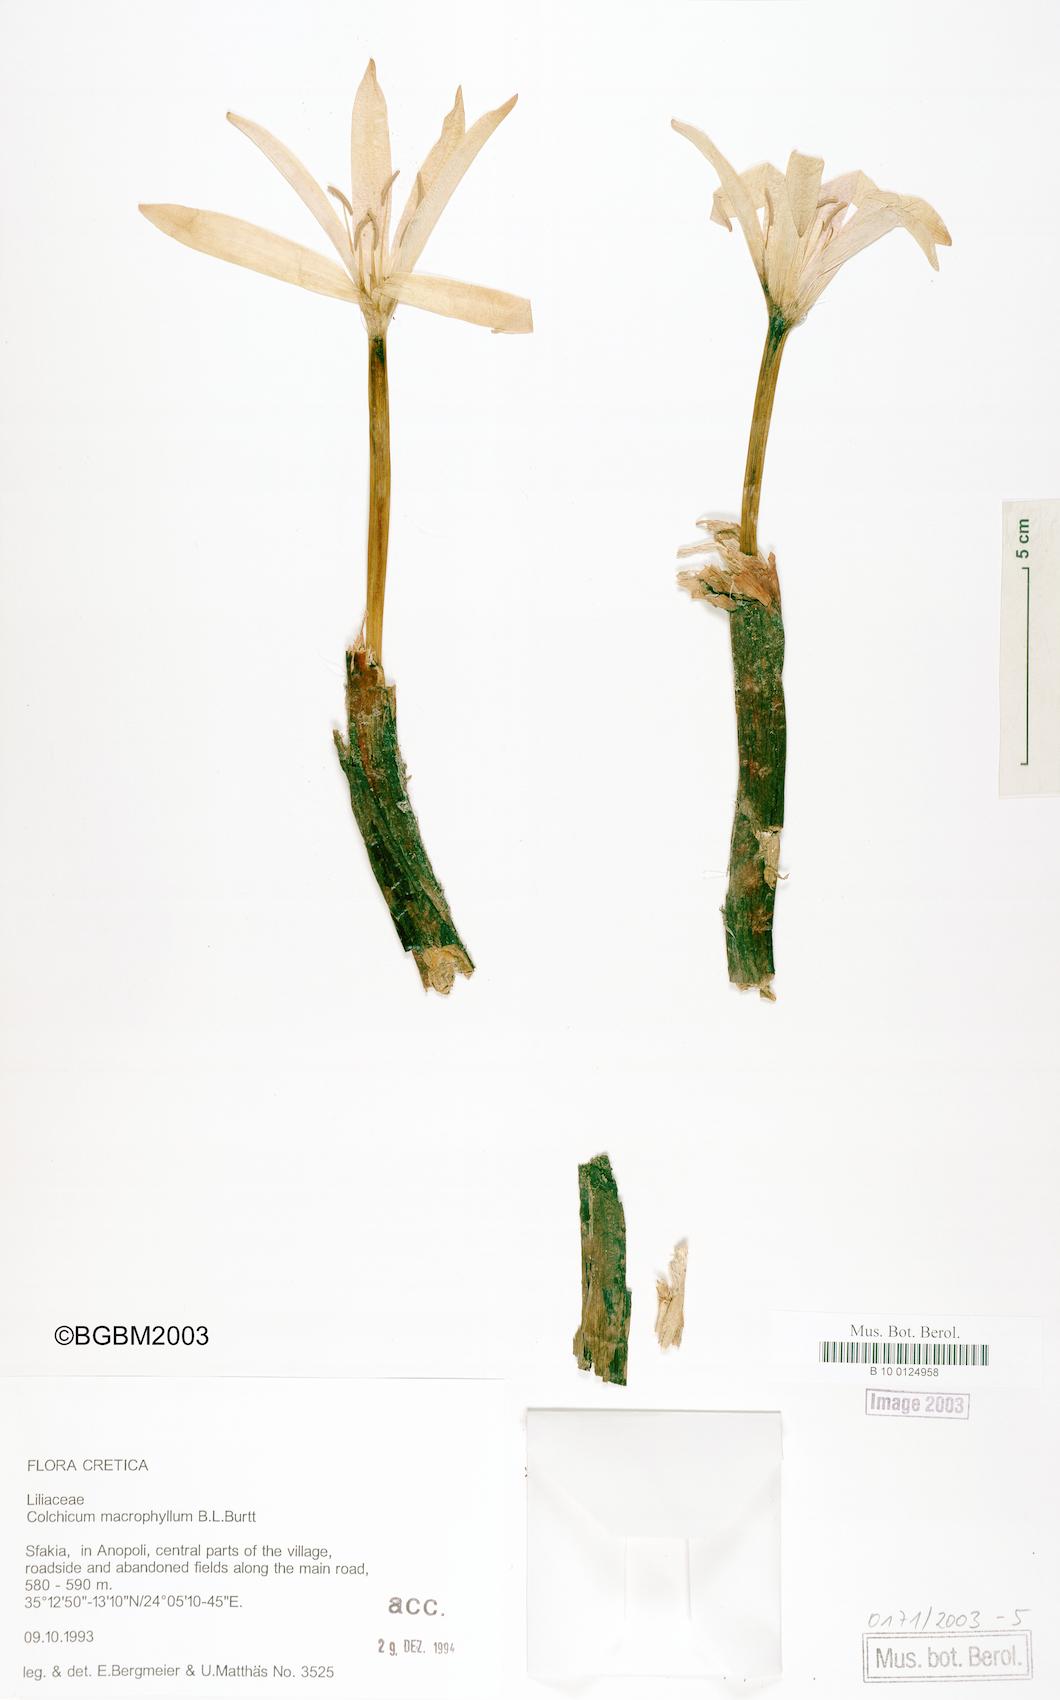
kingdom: Plantae
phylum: Tracheophyta
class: Liliopsida
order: Liliales
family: Colchicaceae
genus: Colchicum
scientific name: Colchicum macrophyllum
